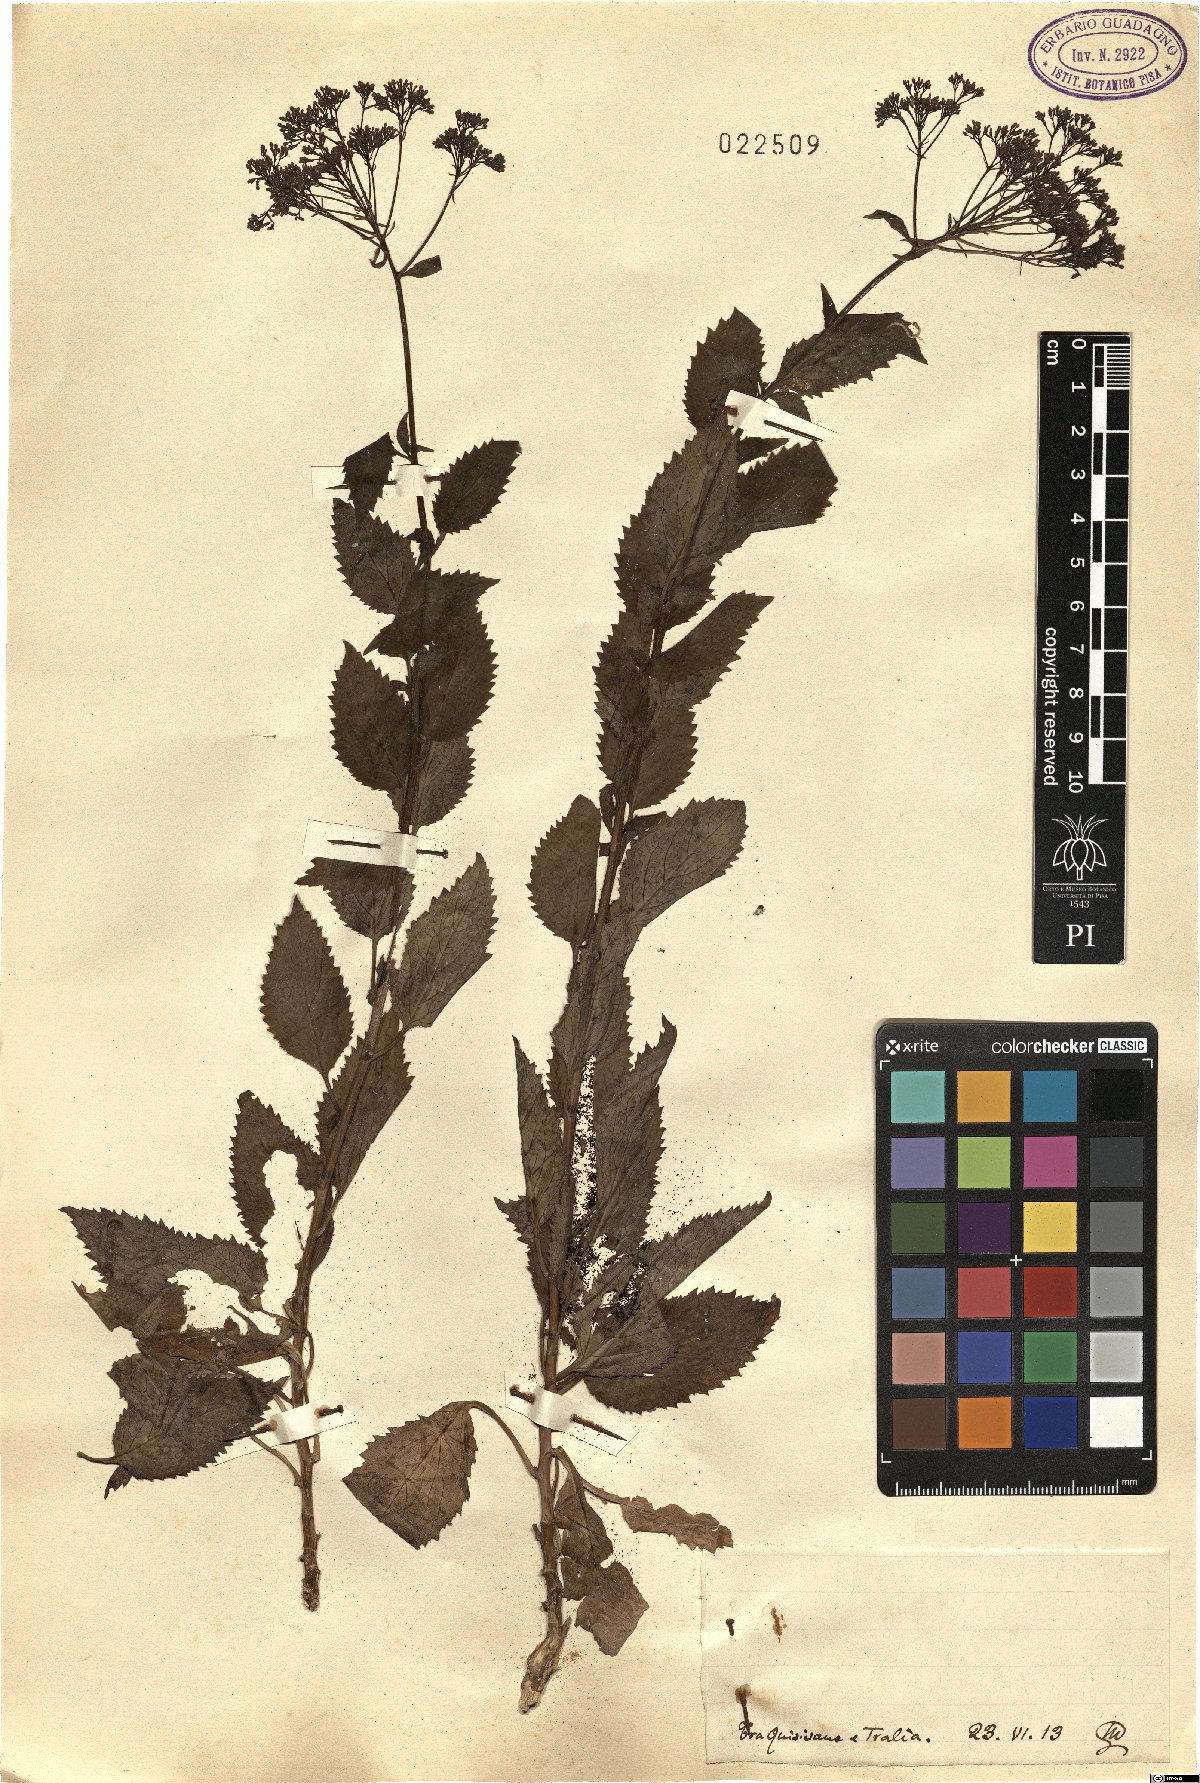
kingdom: Plantae
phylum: Tracheophyta
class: Magnoliopsida
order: Asterales
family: Campanulaceae
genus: Trachelium
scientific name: Trachelium
